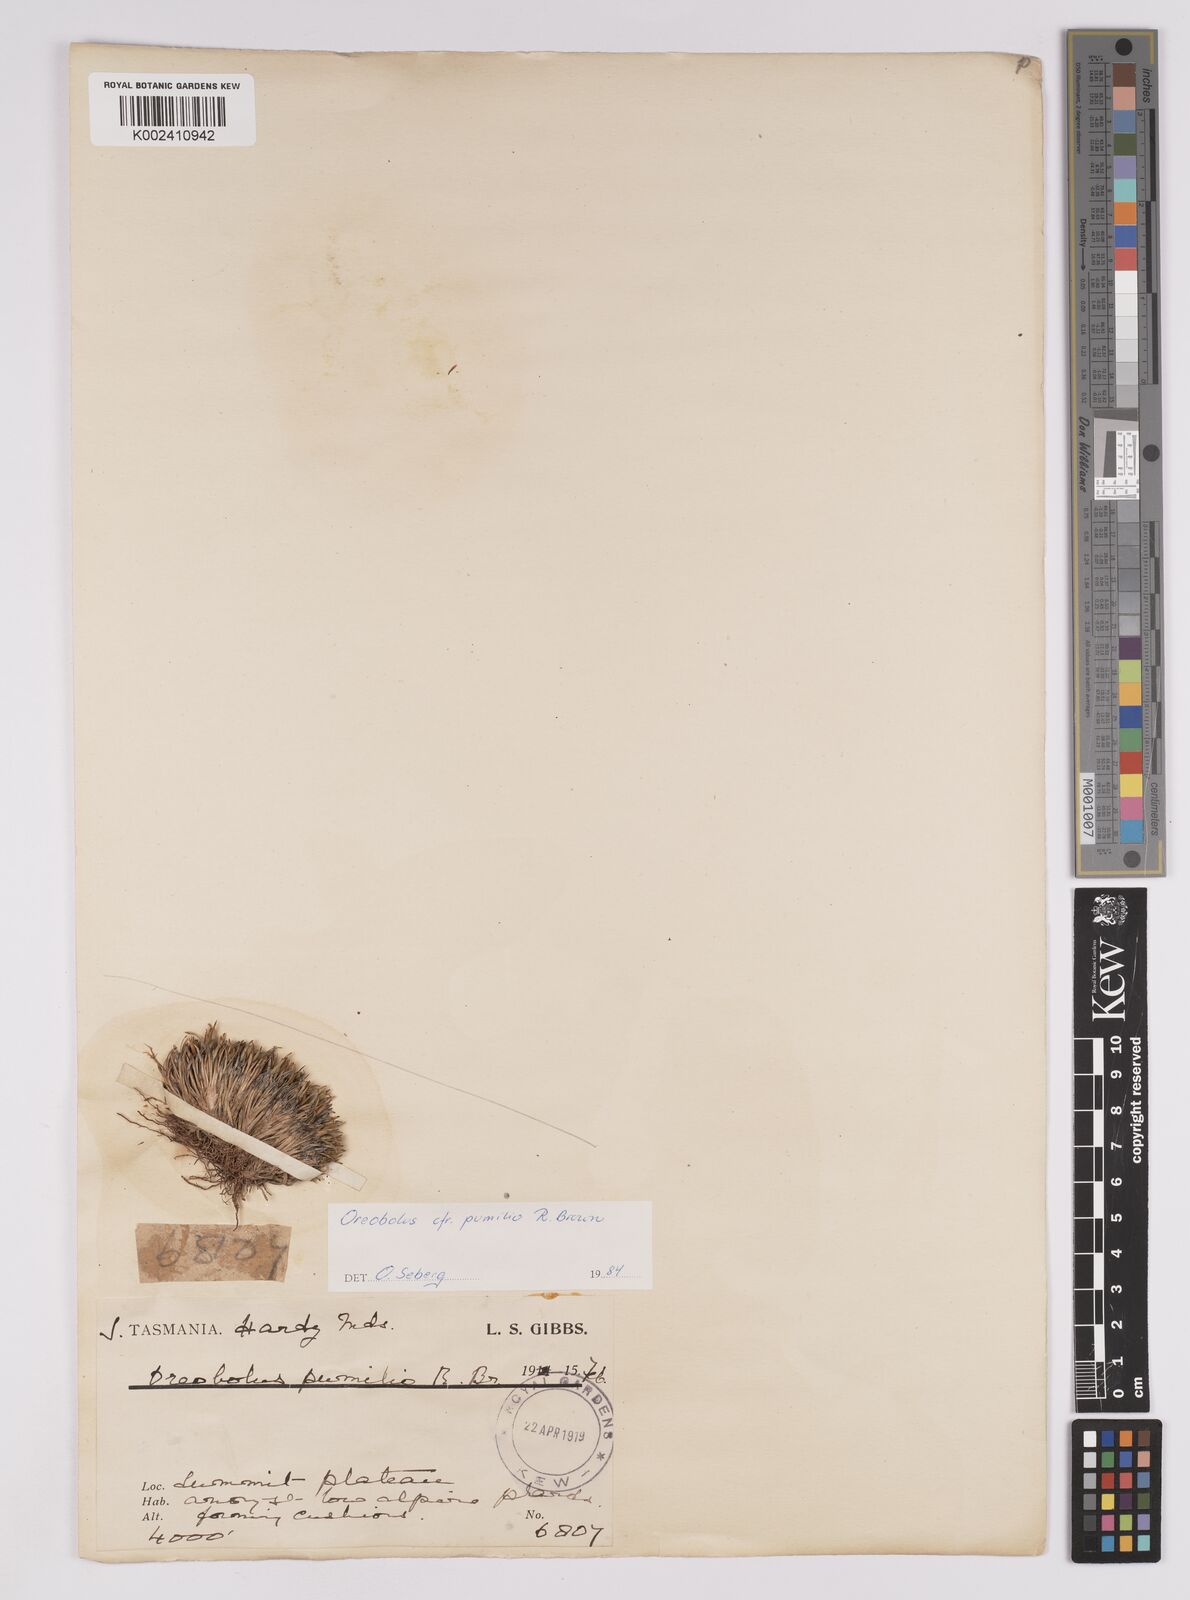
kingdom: Plantae
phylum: Tracheophyta
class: Liliopsida
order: Poales
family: Cyperaceae
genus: Oreobolus
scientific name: Oreobolus pumilio
